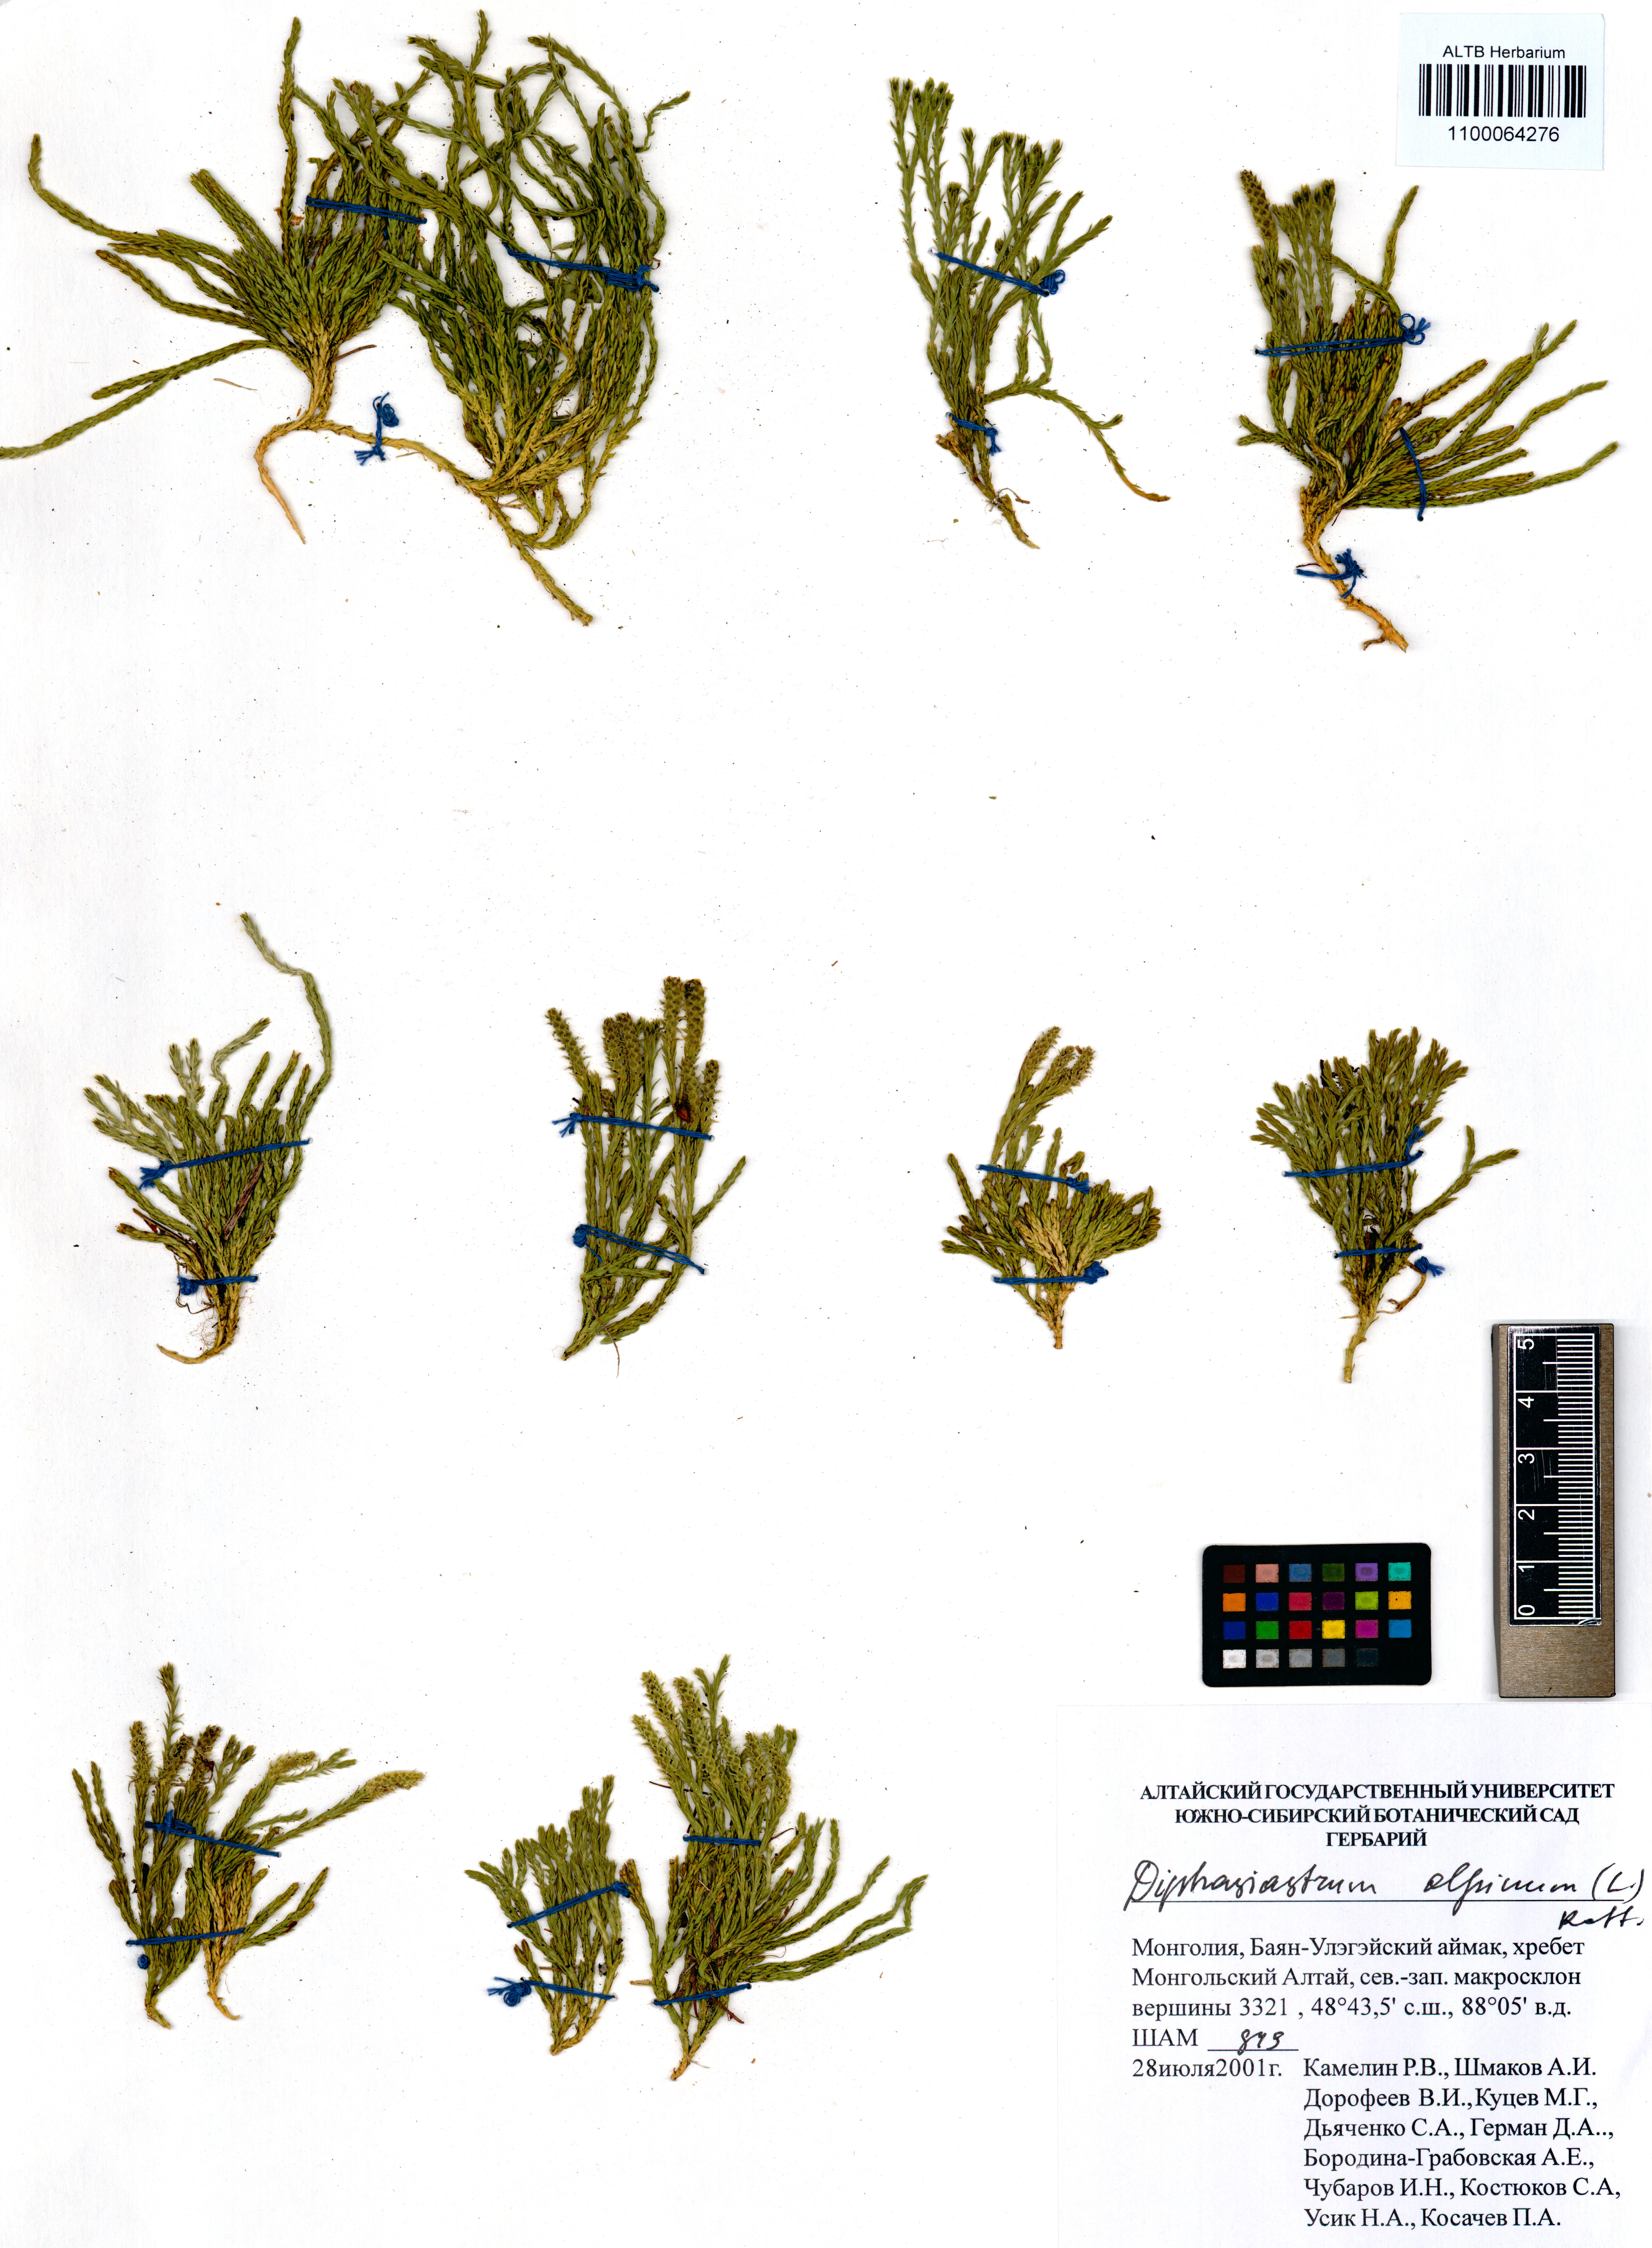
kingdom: Plantae
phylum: Tracheophyta
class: Lycopodiopsida
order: Lycopodiales
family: Lycopodiaceae
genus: Diphasiastrum
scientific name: Diphasiastrum alpinum
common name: Alpine clubmoss
